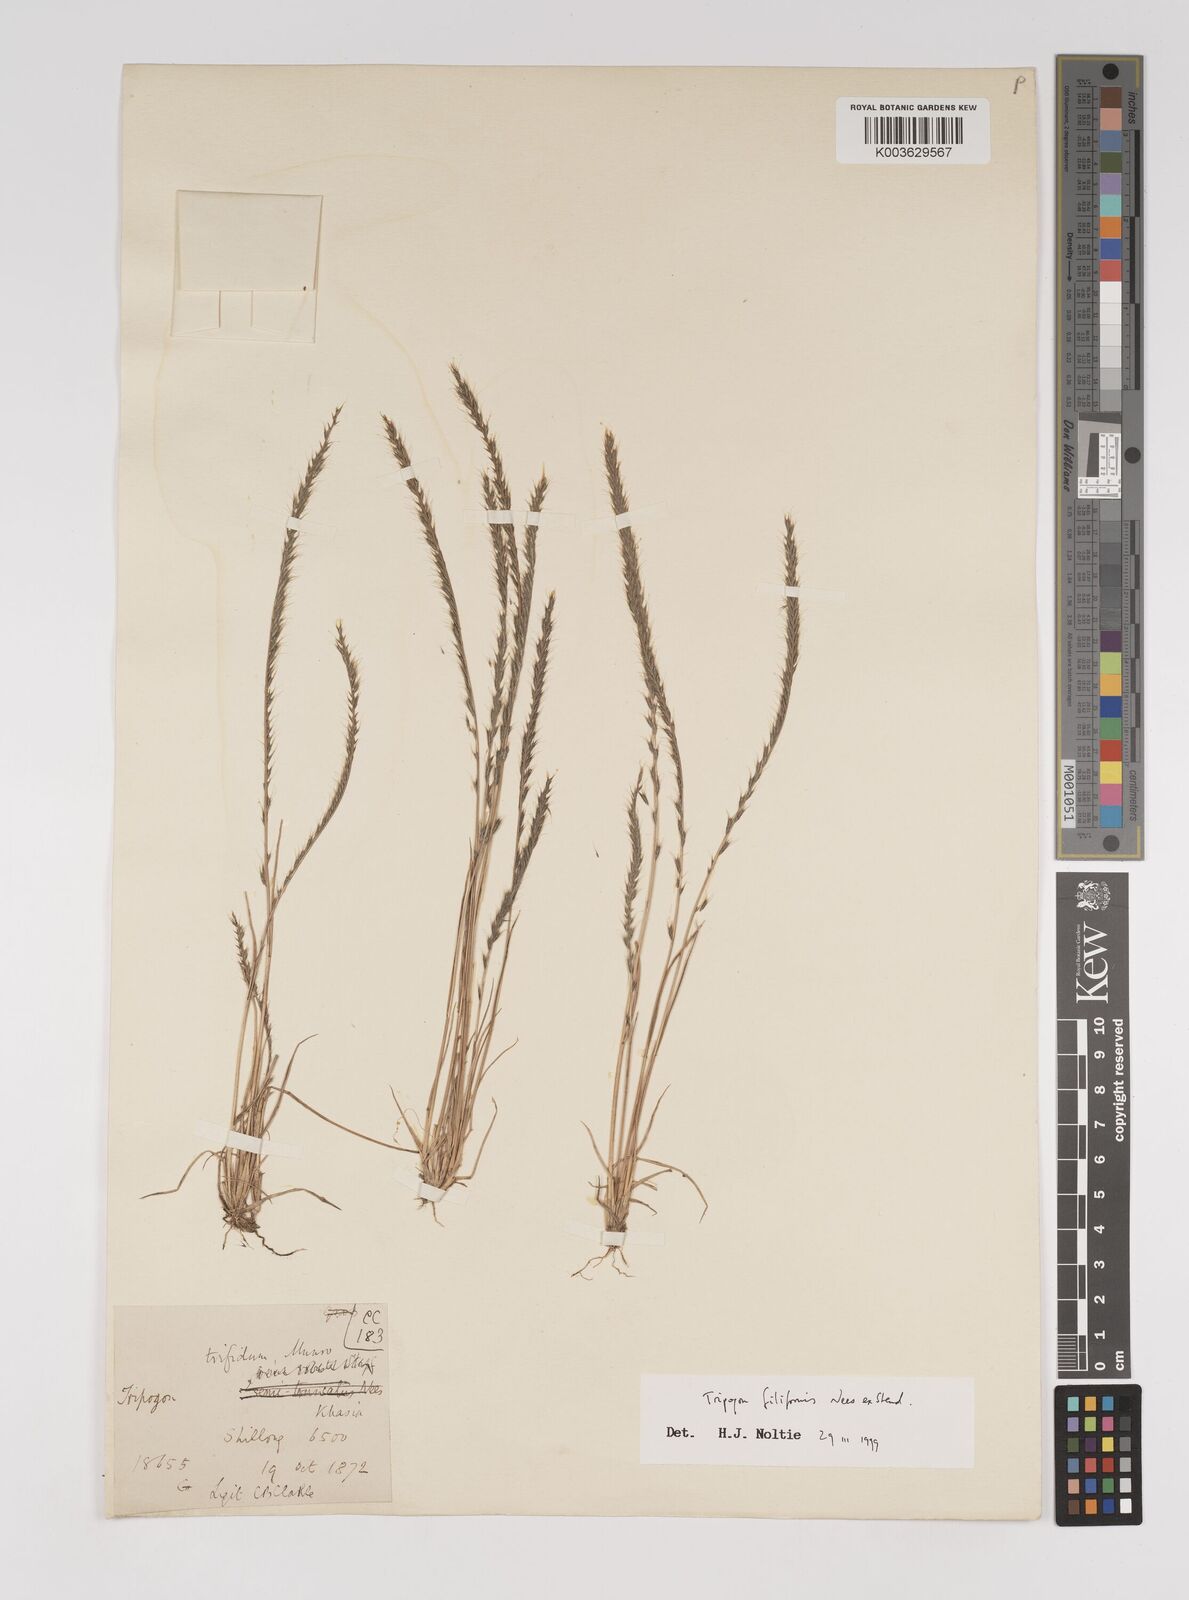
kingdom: Plantae
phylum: Tracheophyta
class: Liliopsida
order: Poales
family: Poaceae
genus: Tripogon
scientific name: Tripogon filiformis
